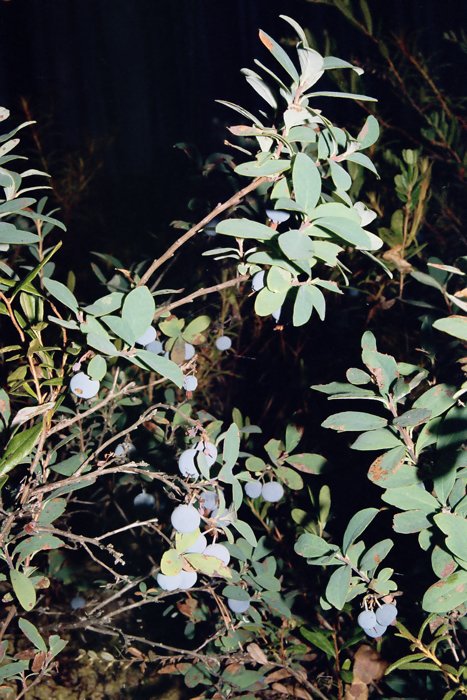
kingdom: Plantae
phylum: Tracheophyta
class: Magnoliopsida
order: Ericales
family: Ericaceae
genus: Vaccinium
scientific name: Vaccinium uliginosum
